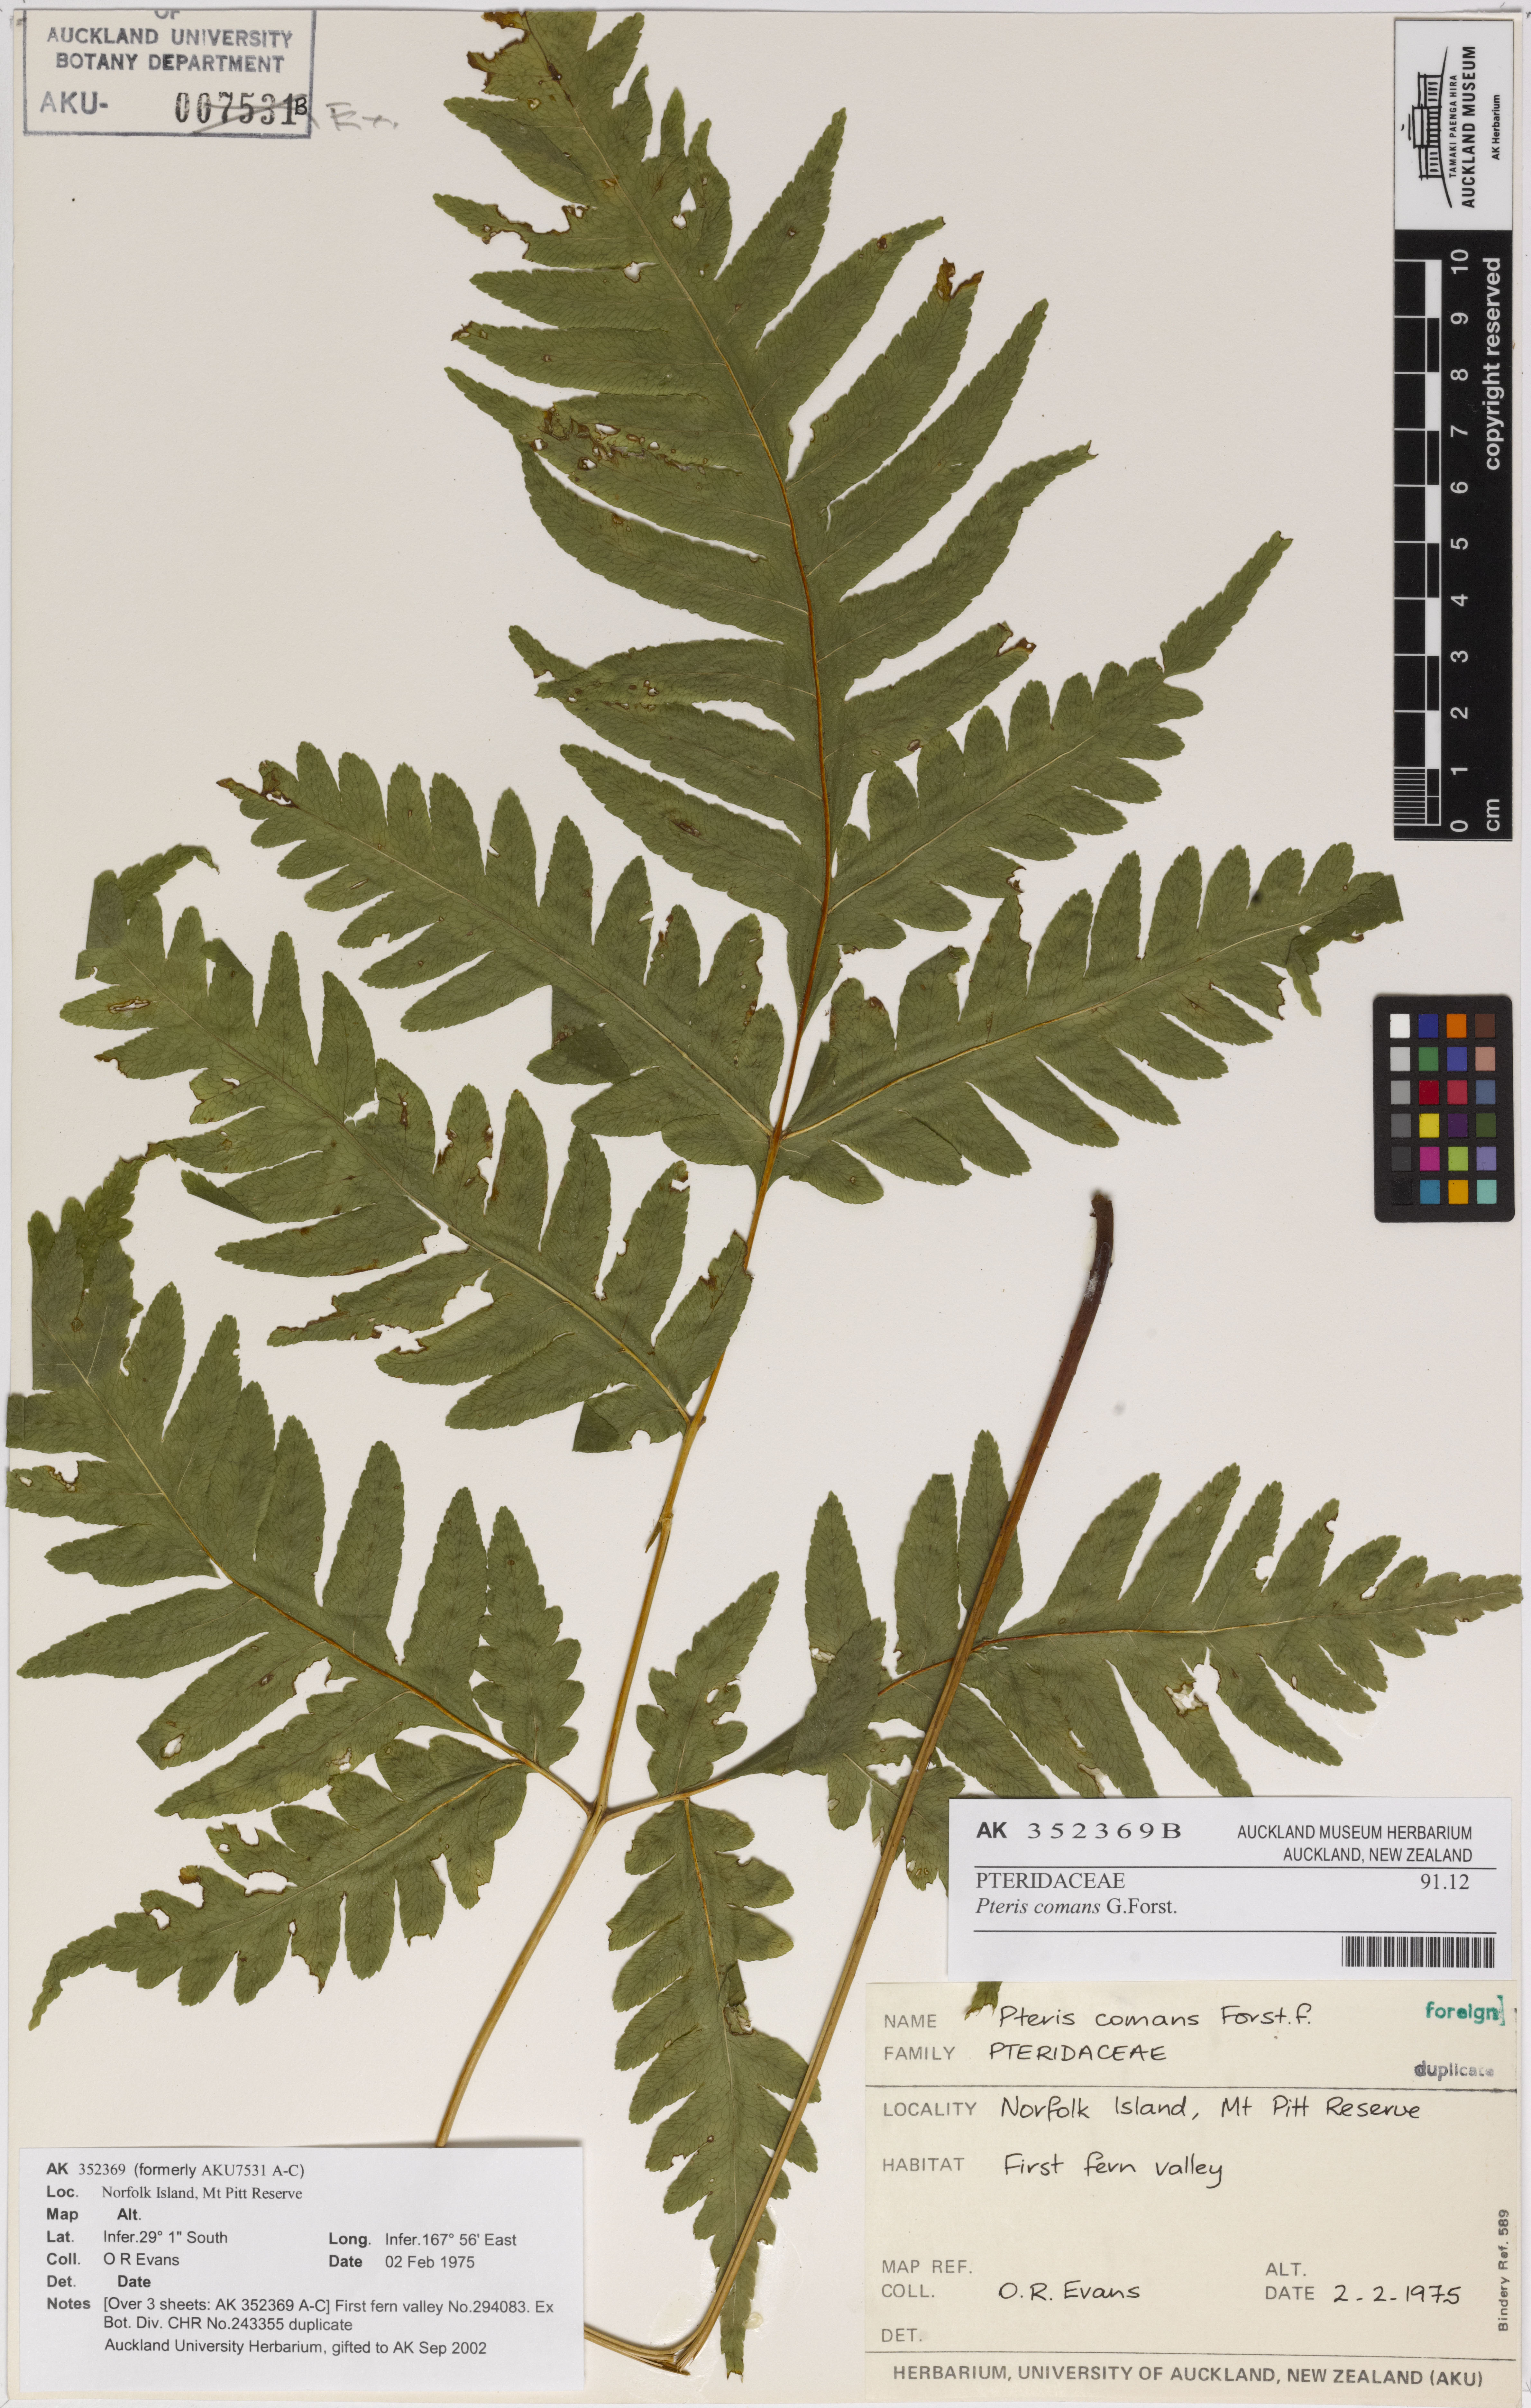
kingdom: Plantae
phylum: Tracheophyta
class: Polypodiopsida
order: Polypodiales
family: Pteridaceae
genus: Pteris
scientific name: Pteris zahlbruckneriana
